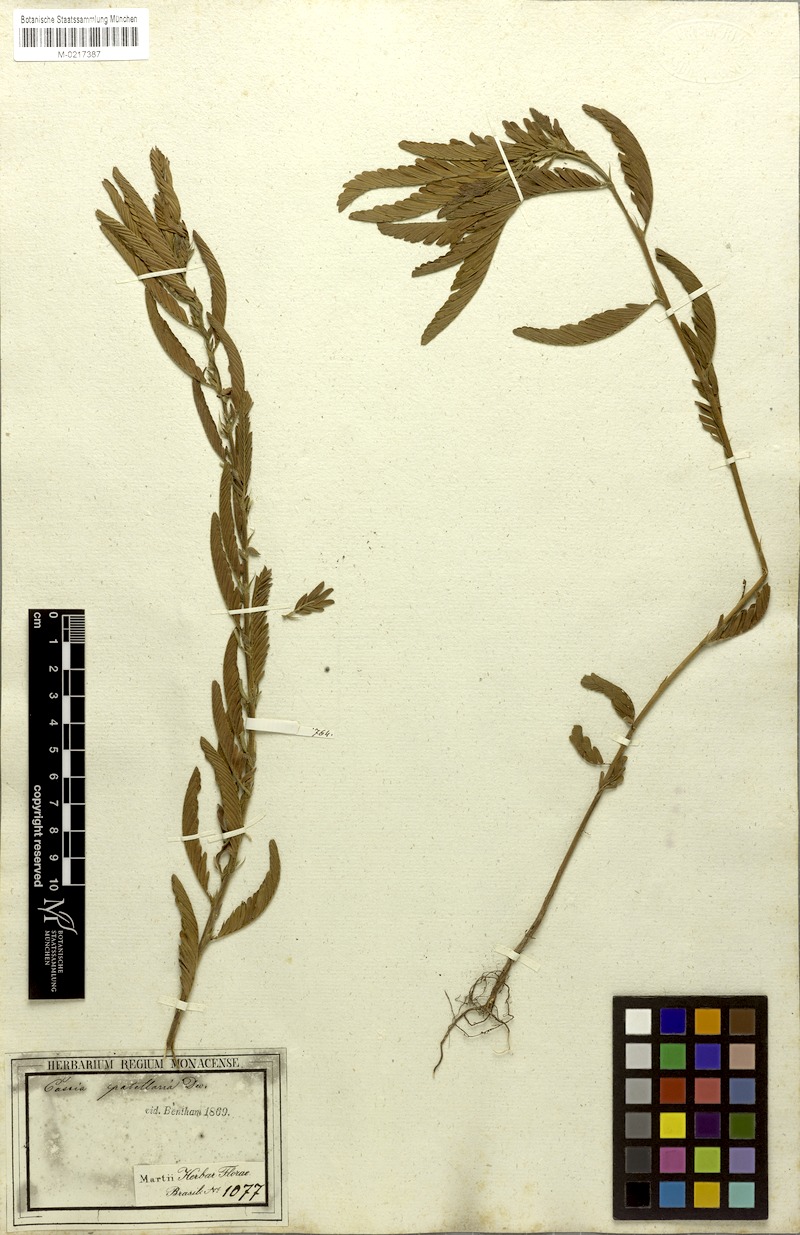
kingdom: Plantae
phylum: Tracheophyta
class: Magnoliopsida
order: Fabales
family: Fabaceae
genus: Chamaecrista
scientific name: Chamaecrista nictitans
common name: Sensitive cassia
